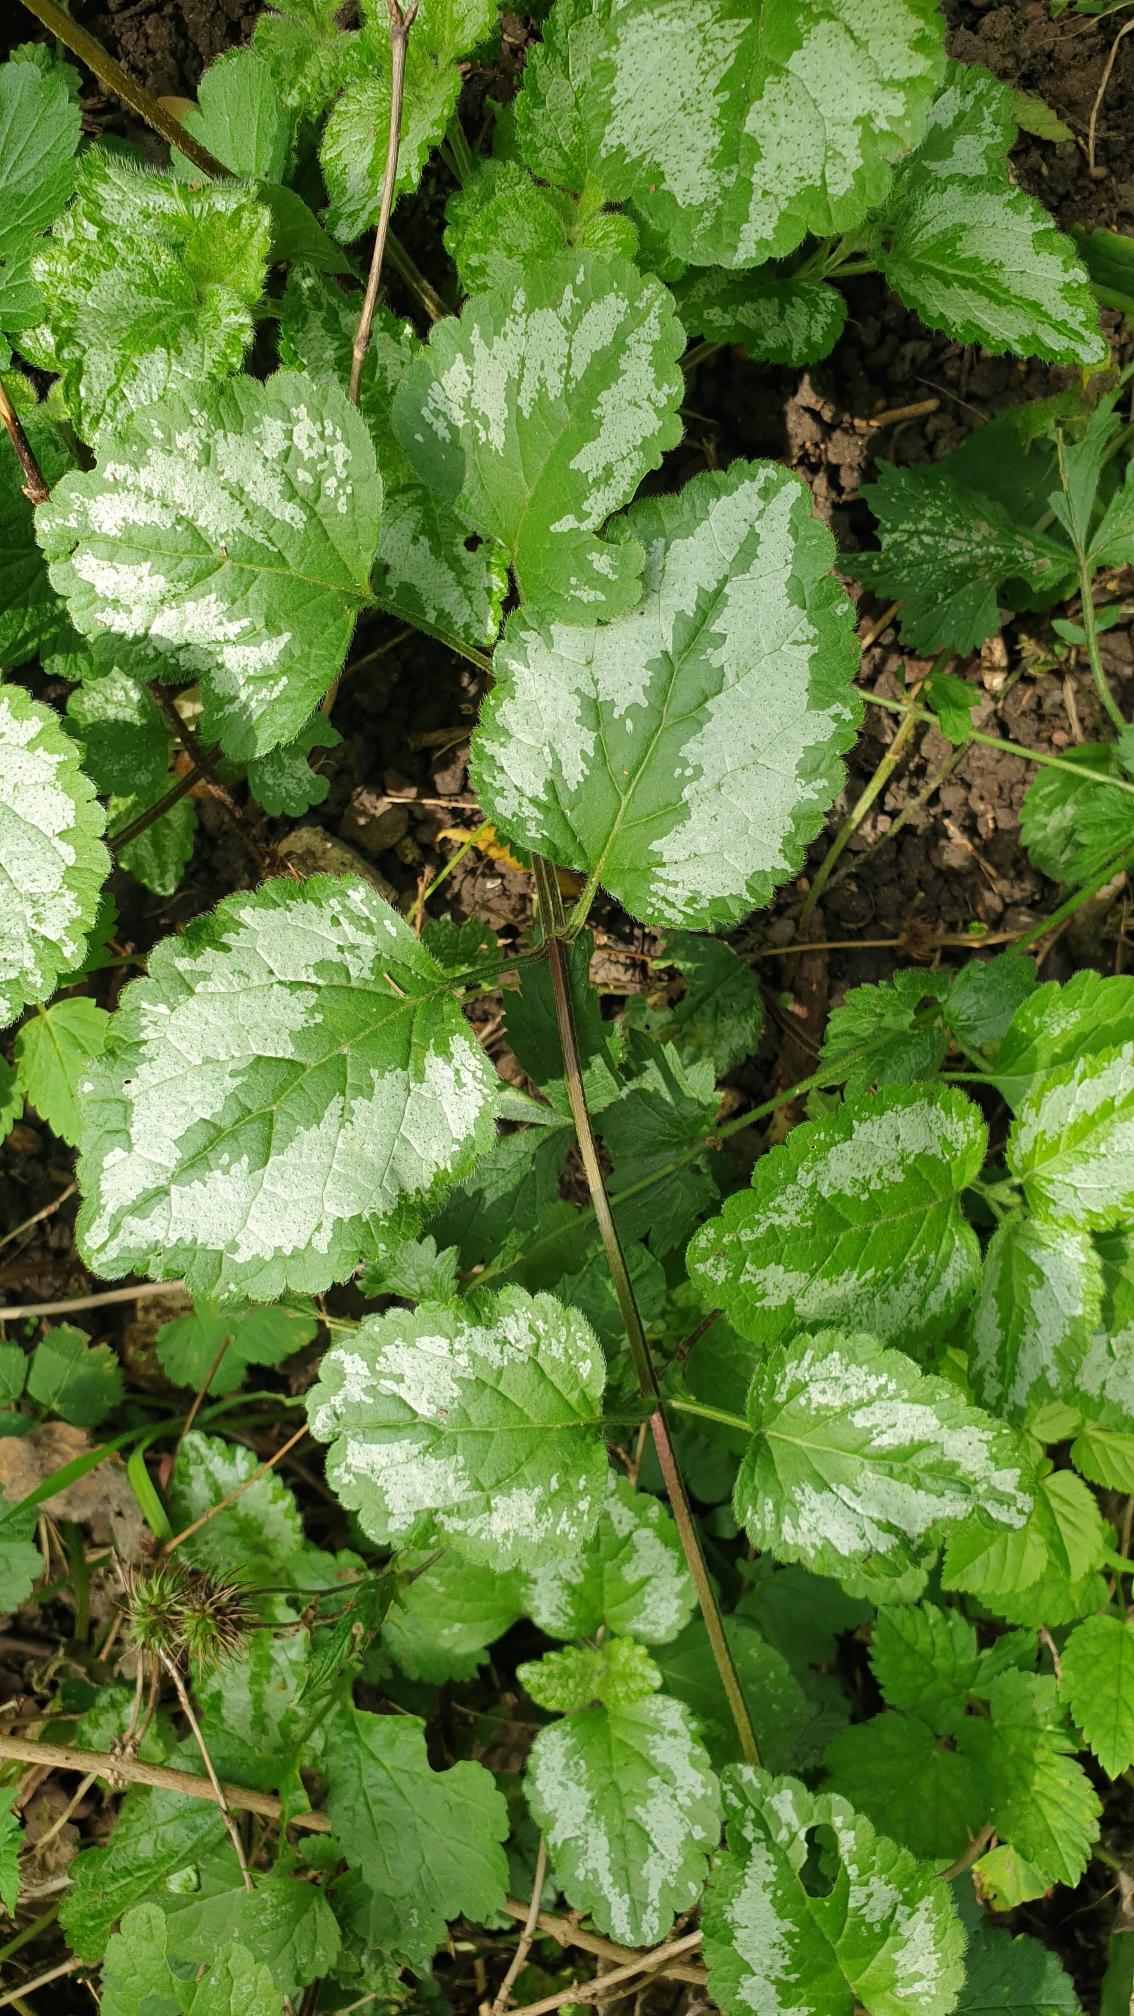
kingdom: Plantae
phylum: Tracheophyta
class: Magnoliopsida
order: Lamiales
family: Lamiaceae
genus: Lamium
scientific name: Lamium galeobdolon
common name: Have-guldnælde
